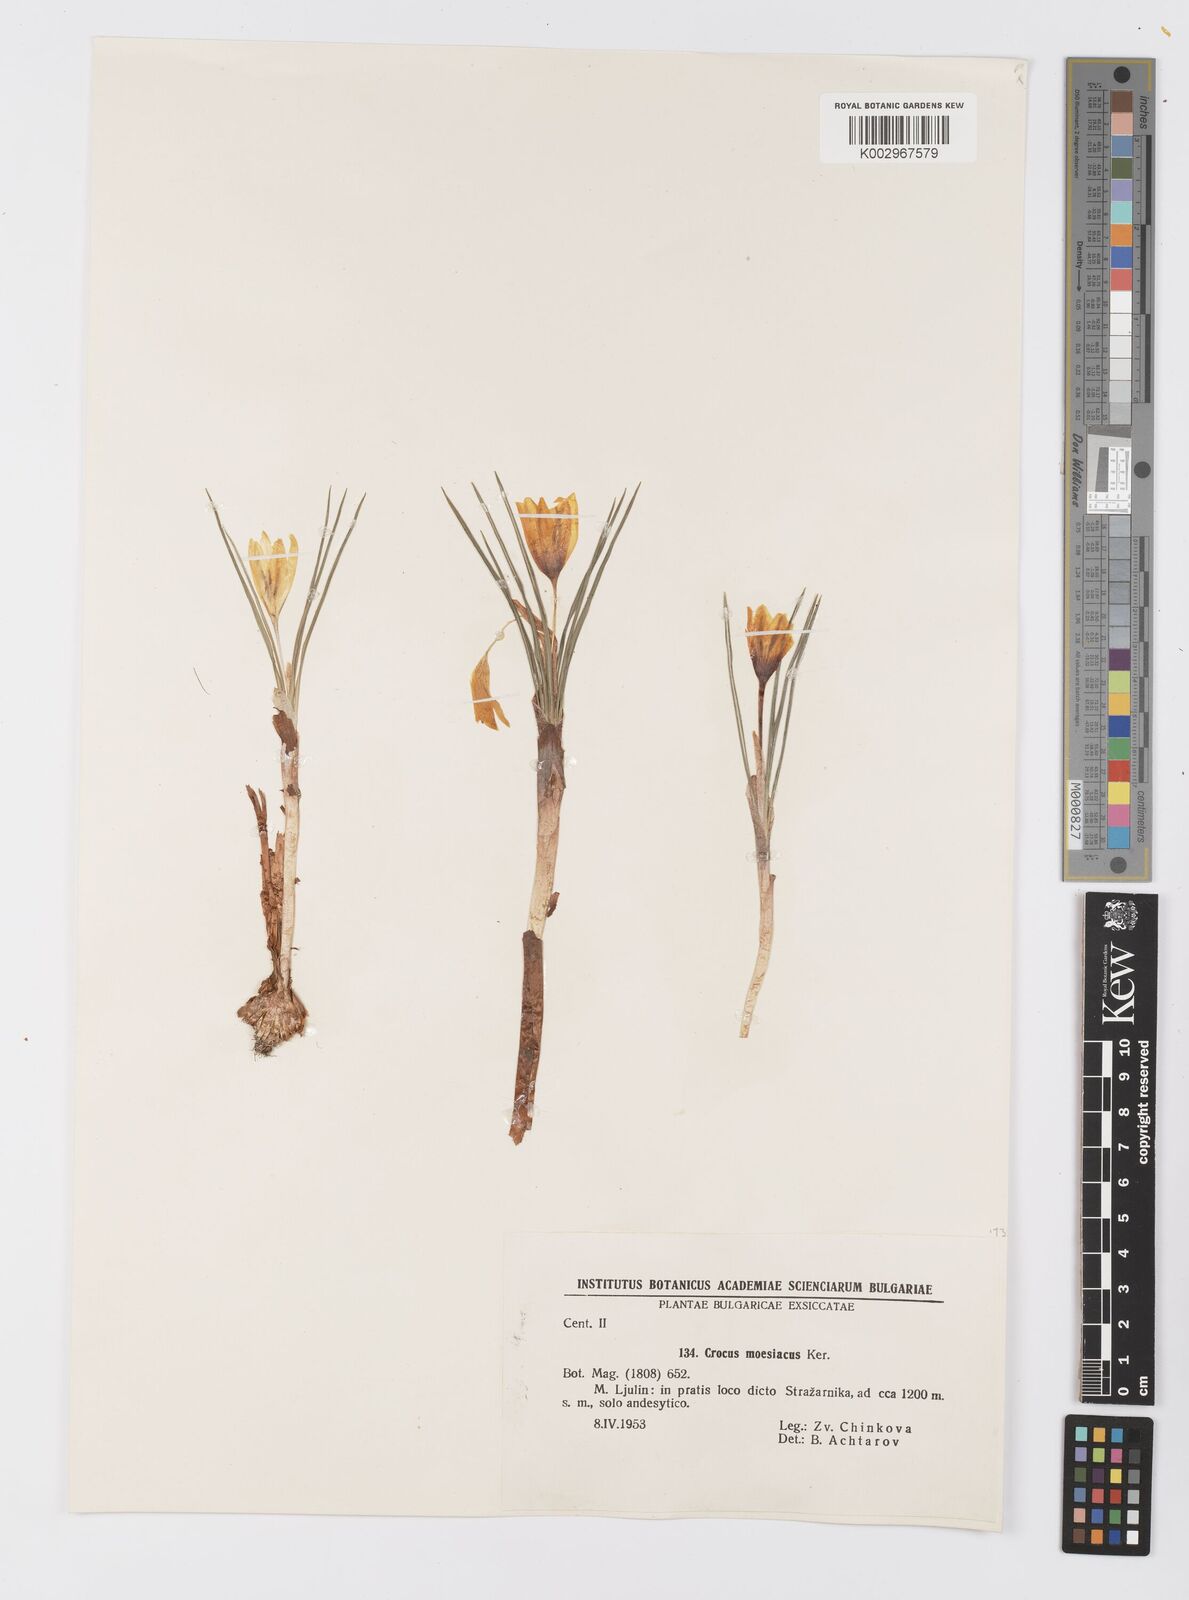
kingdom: Plantae
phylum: Tracheophyta
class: Liliopsida
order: Asparagales
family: Iridaceae
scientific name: Iridaceae
